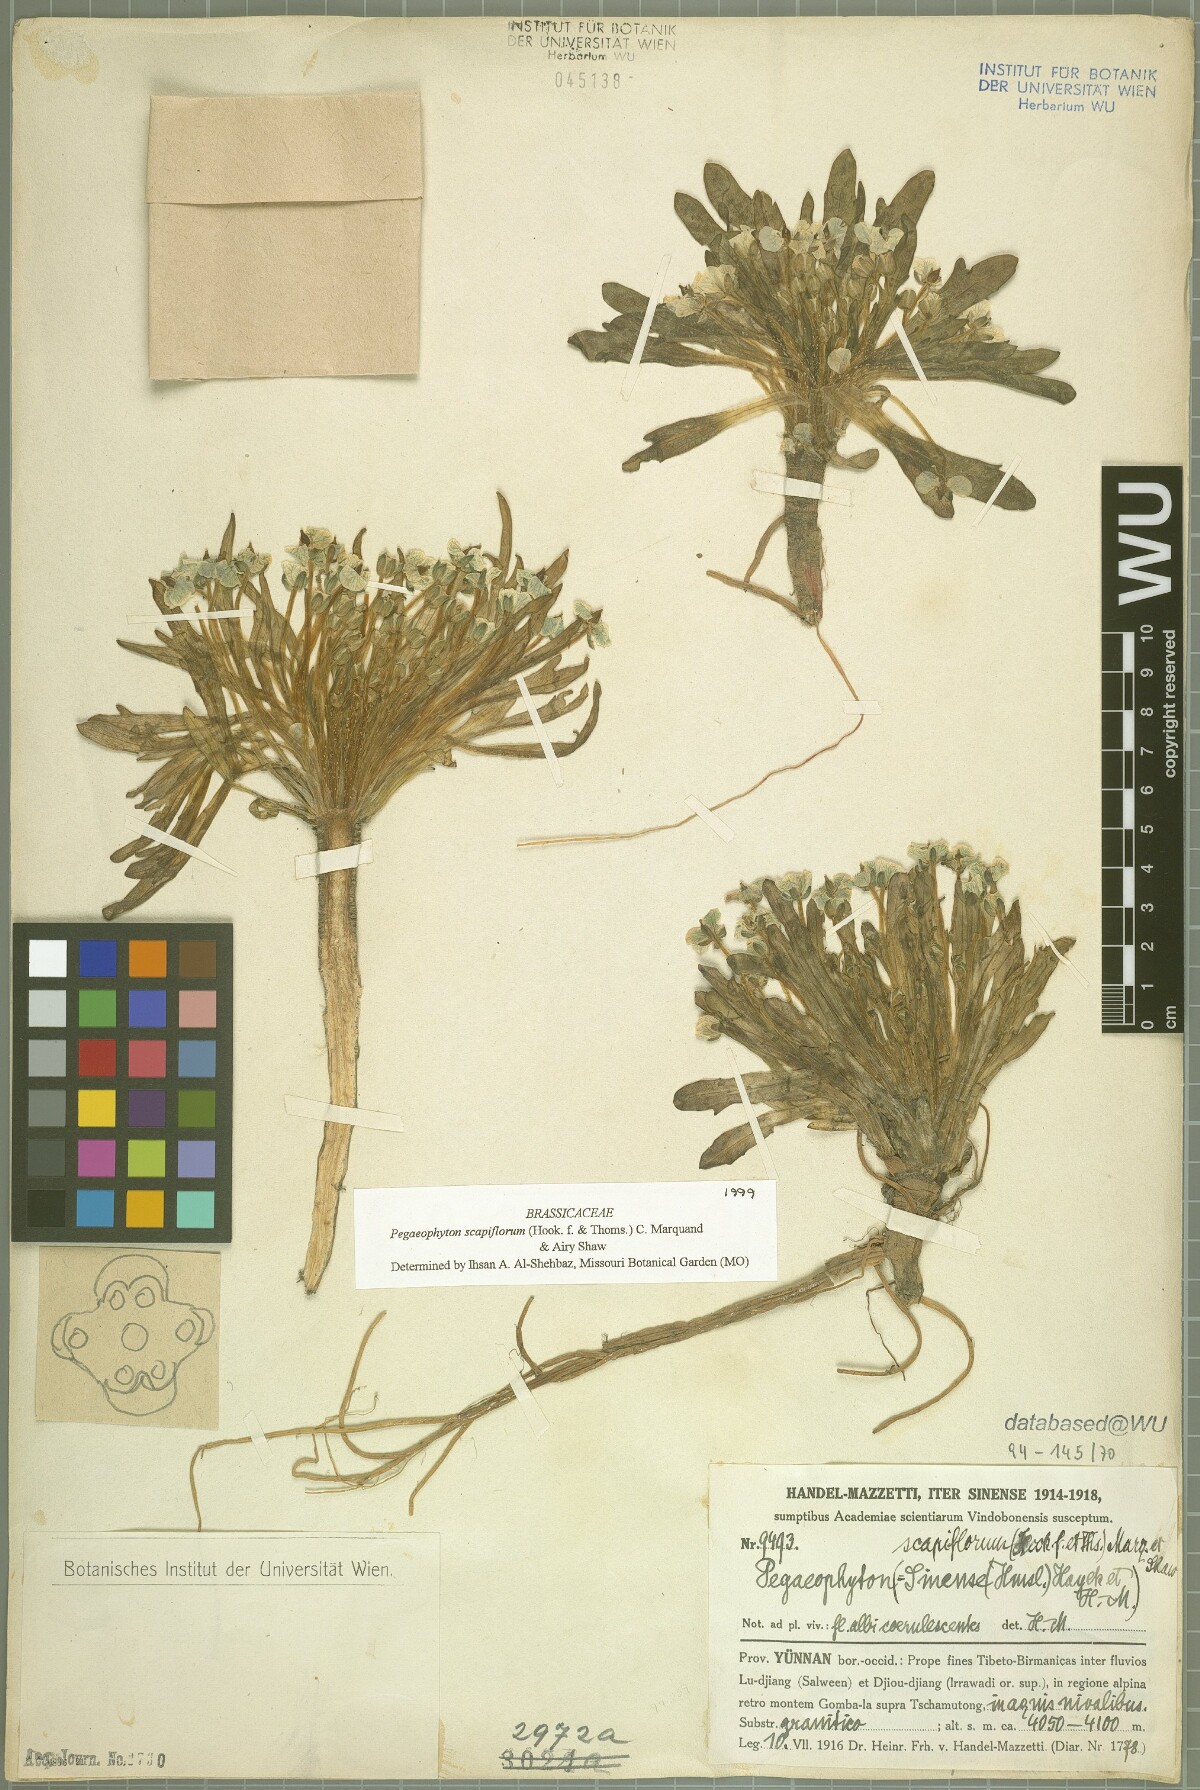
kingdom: Plantae
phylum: Tracheophyta
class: Magnoliopsida
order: Brassicales
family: Brassicaceae
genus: Eutrema
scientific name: Eutrema scapiflorum
